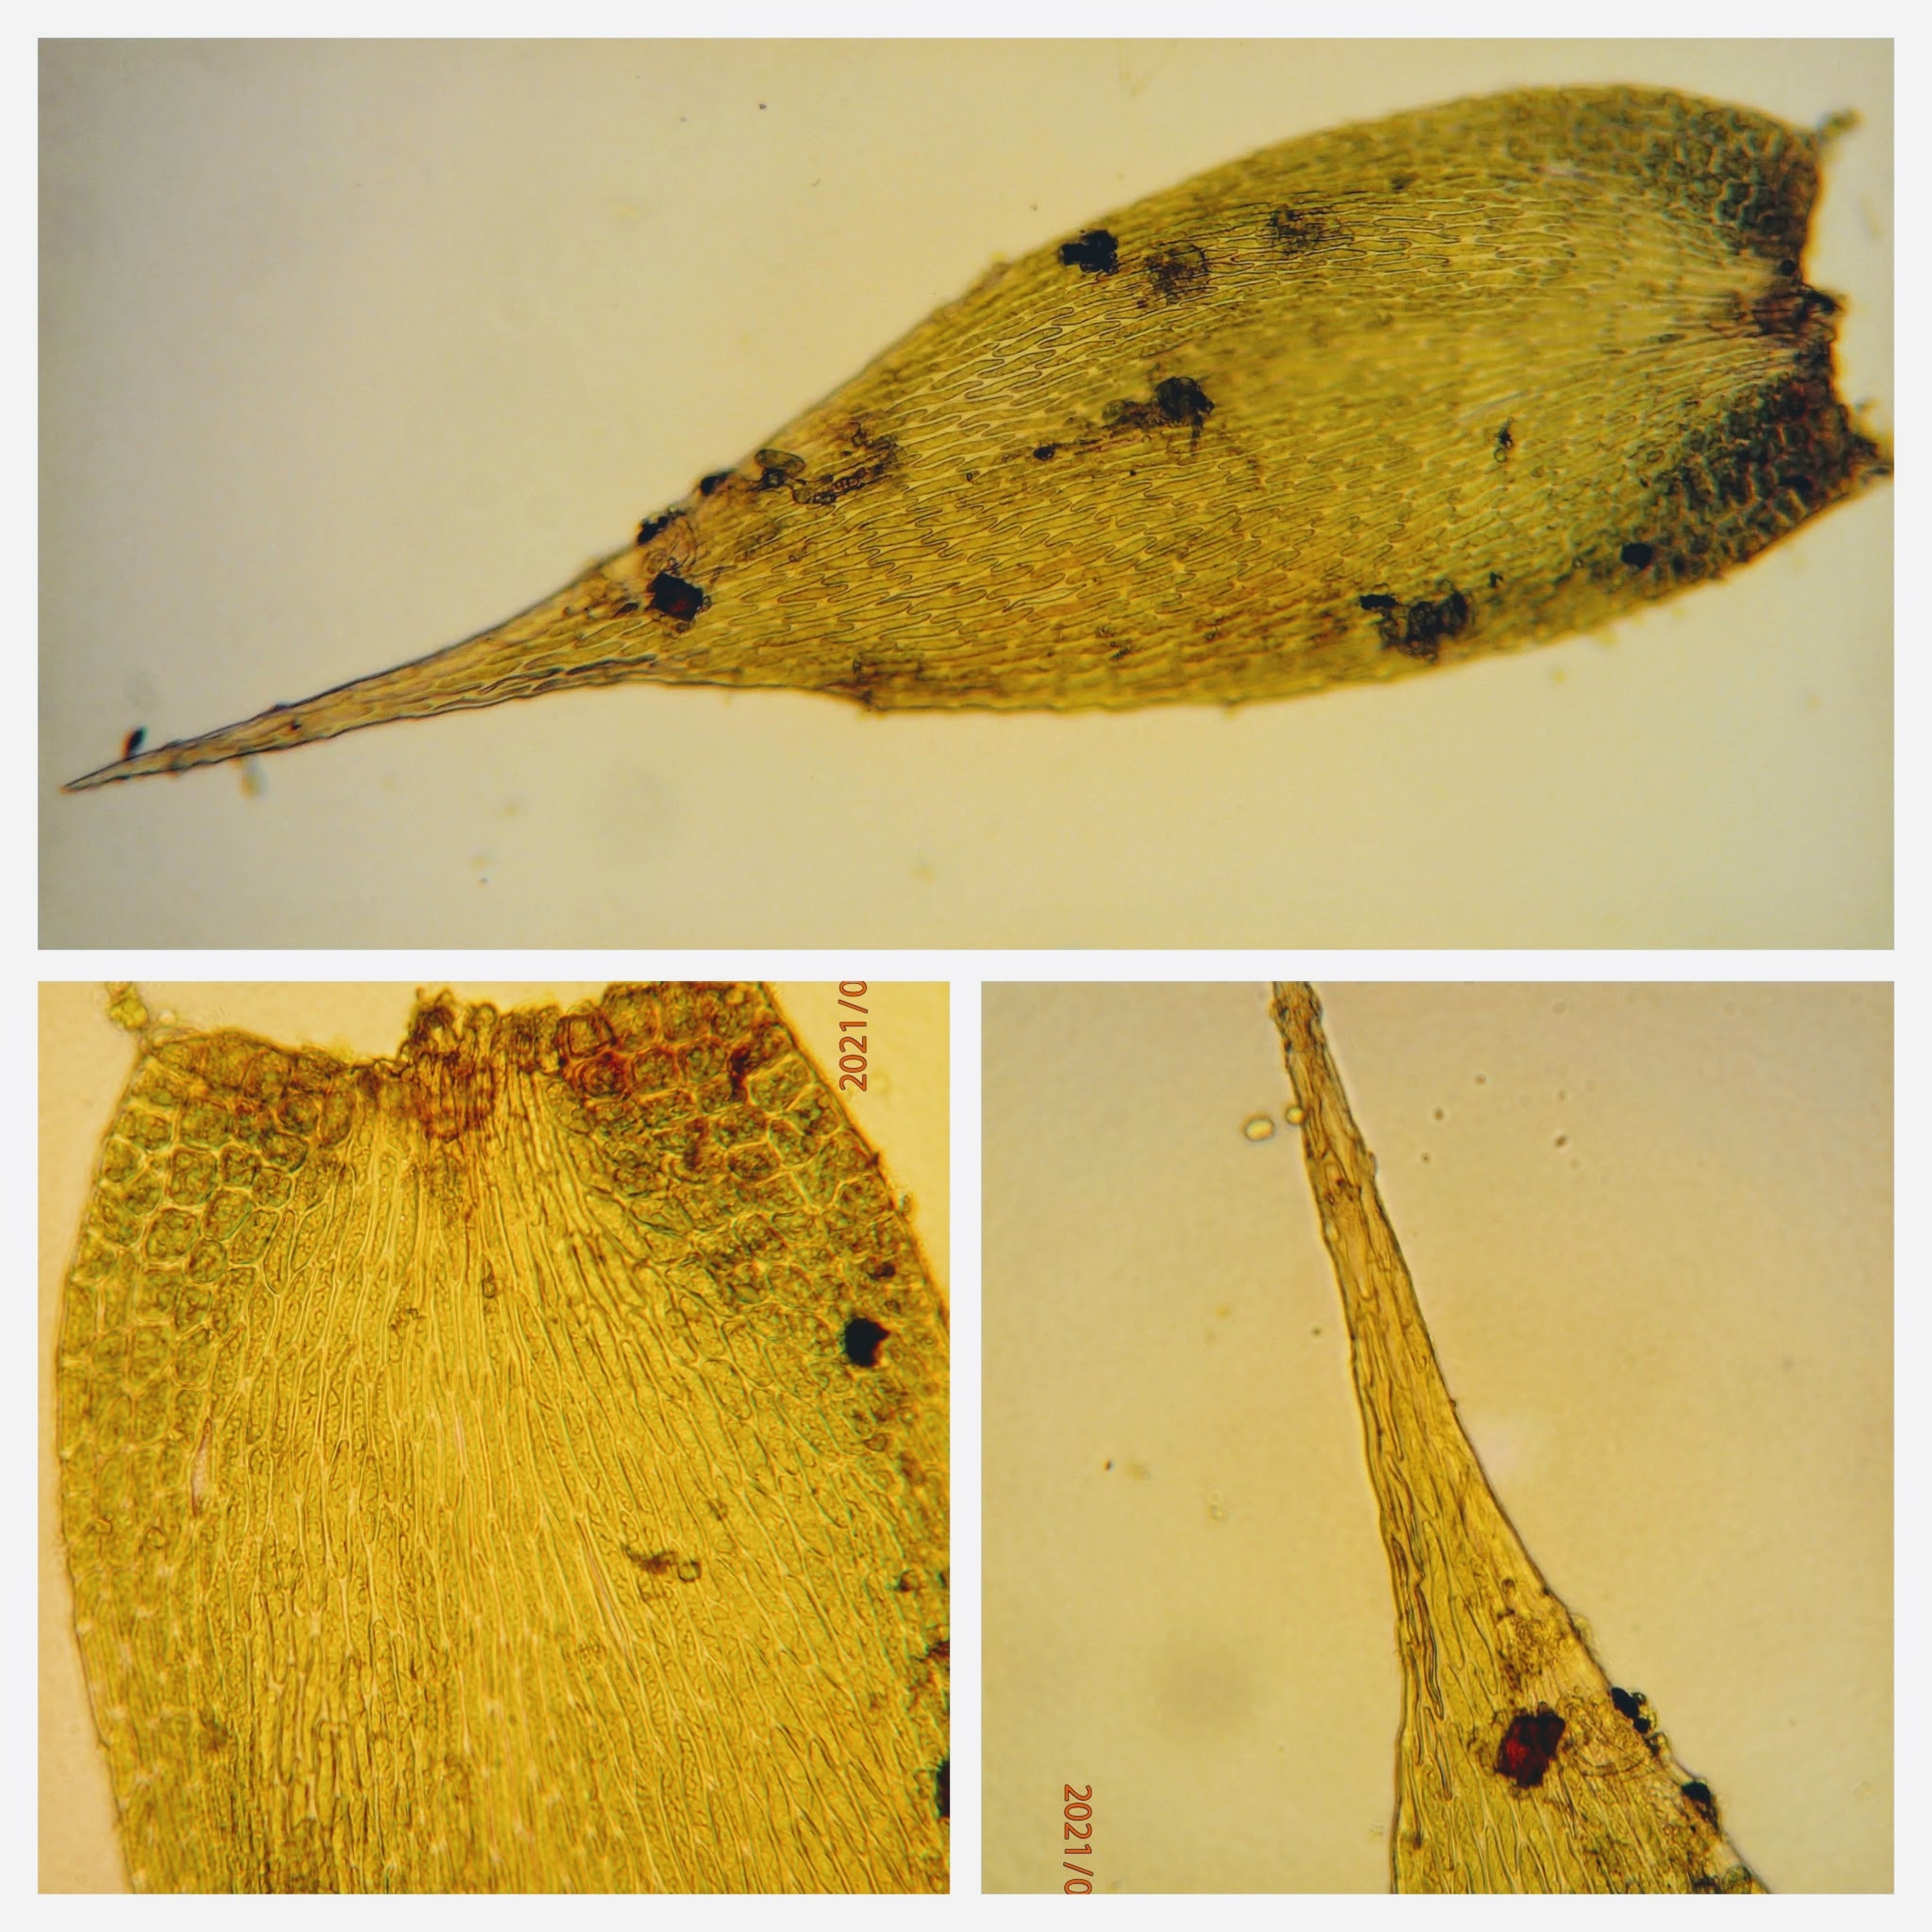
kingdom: Plantae
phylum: Bryophyta
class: Bryopsida
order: Hypnales
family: Hypnaceae
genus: Hypnum
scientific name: Hypnum resupinatum
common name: Ret cypresmos
